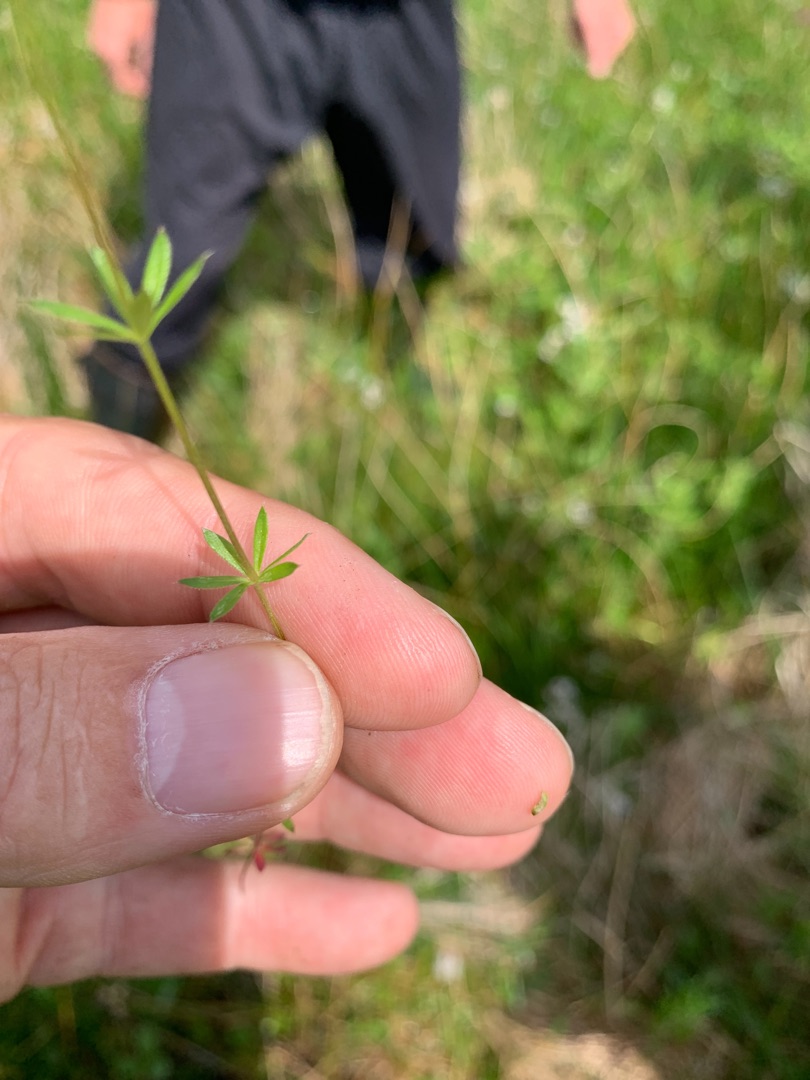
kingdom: Plantae
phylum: Tracheophyta
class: Magnoliopsida
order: Gentianales
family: Rubiaceae
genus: Galium
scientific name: Galium uliginosum
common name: Sump-snerre
